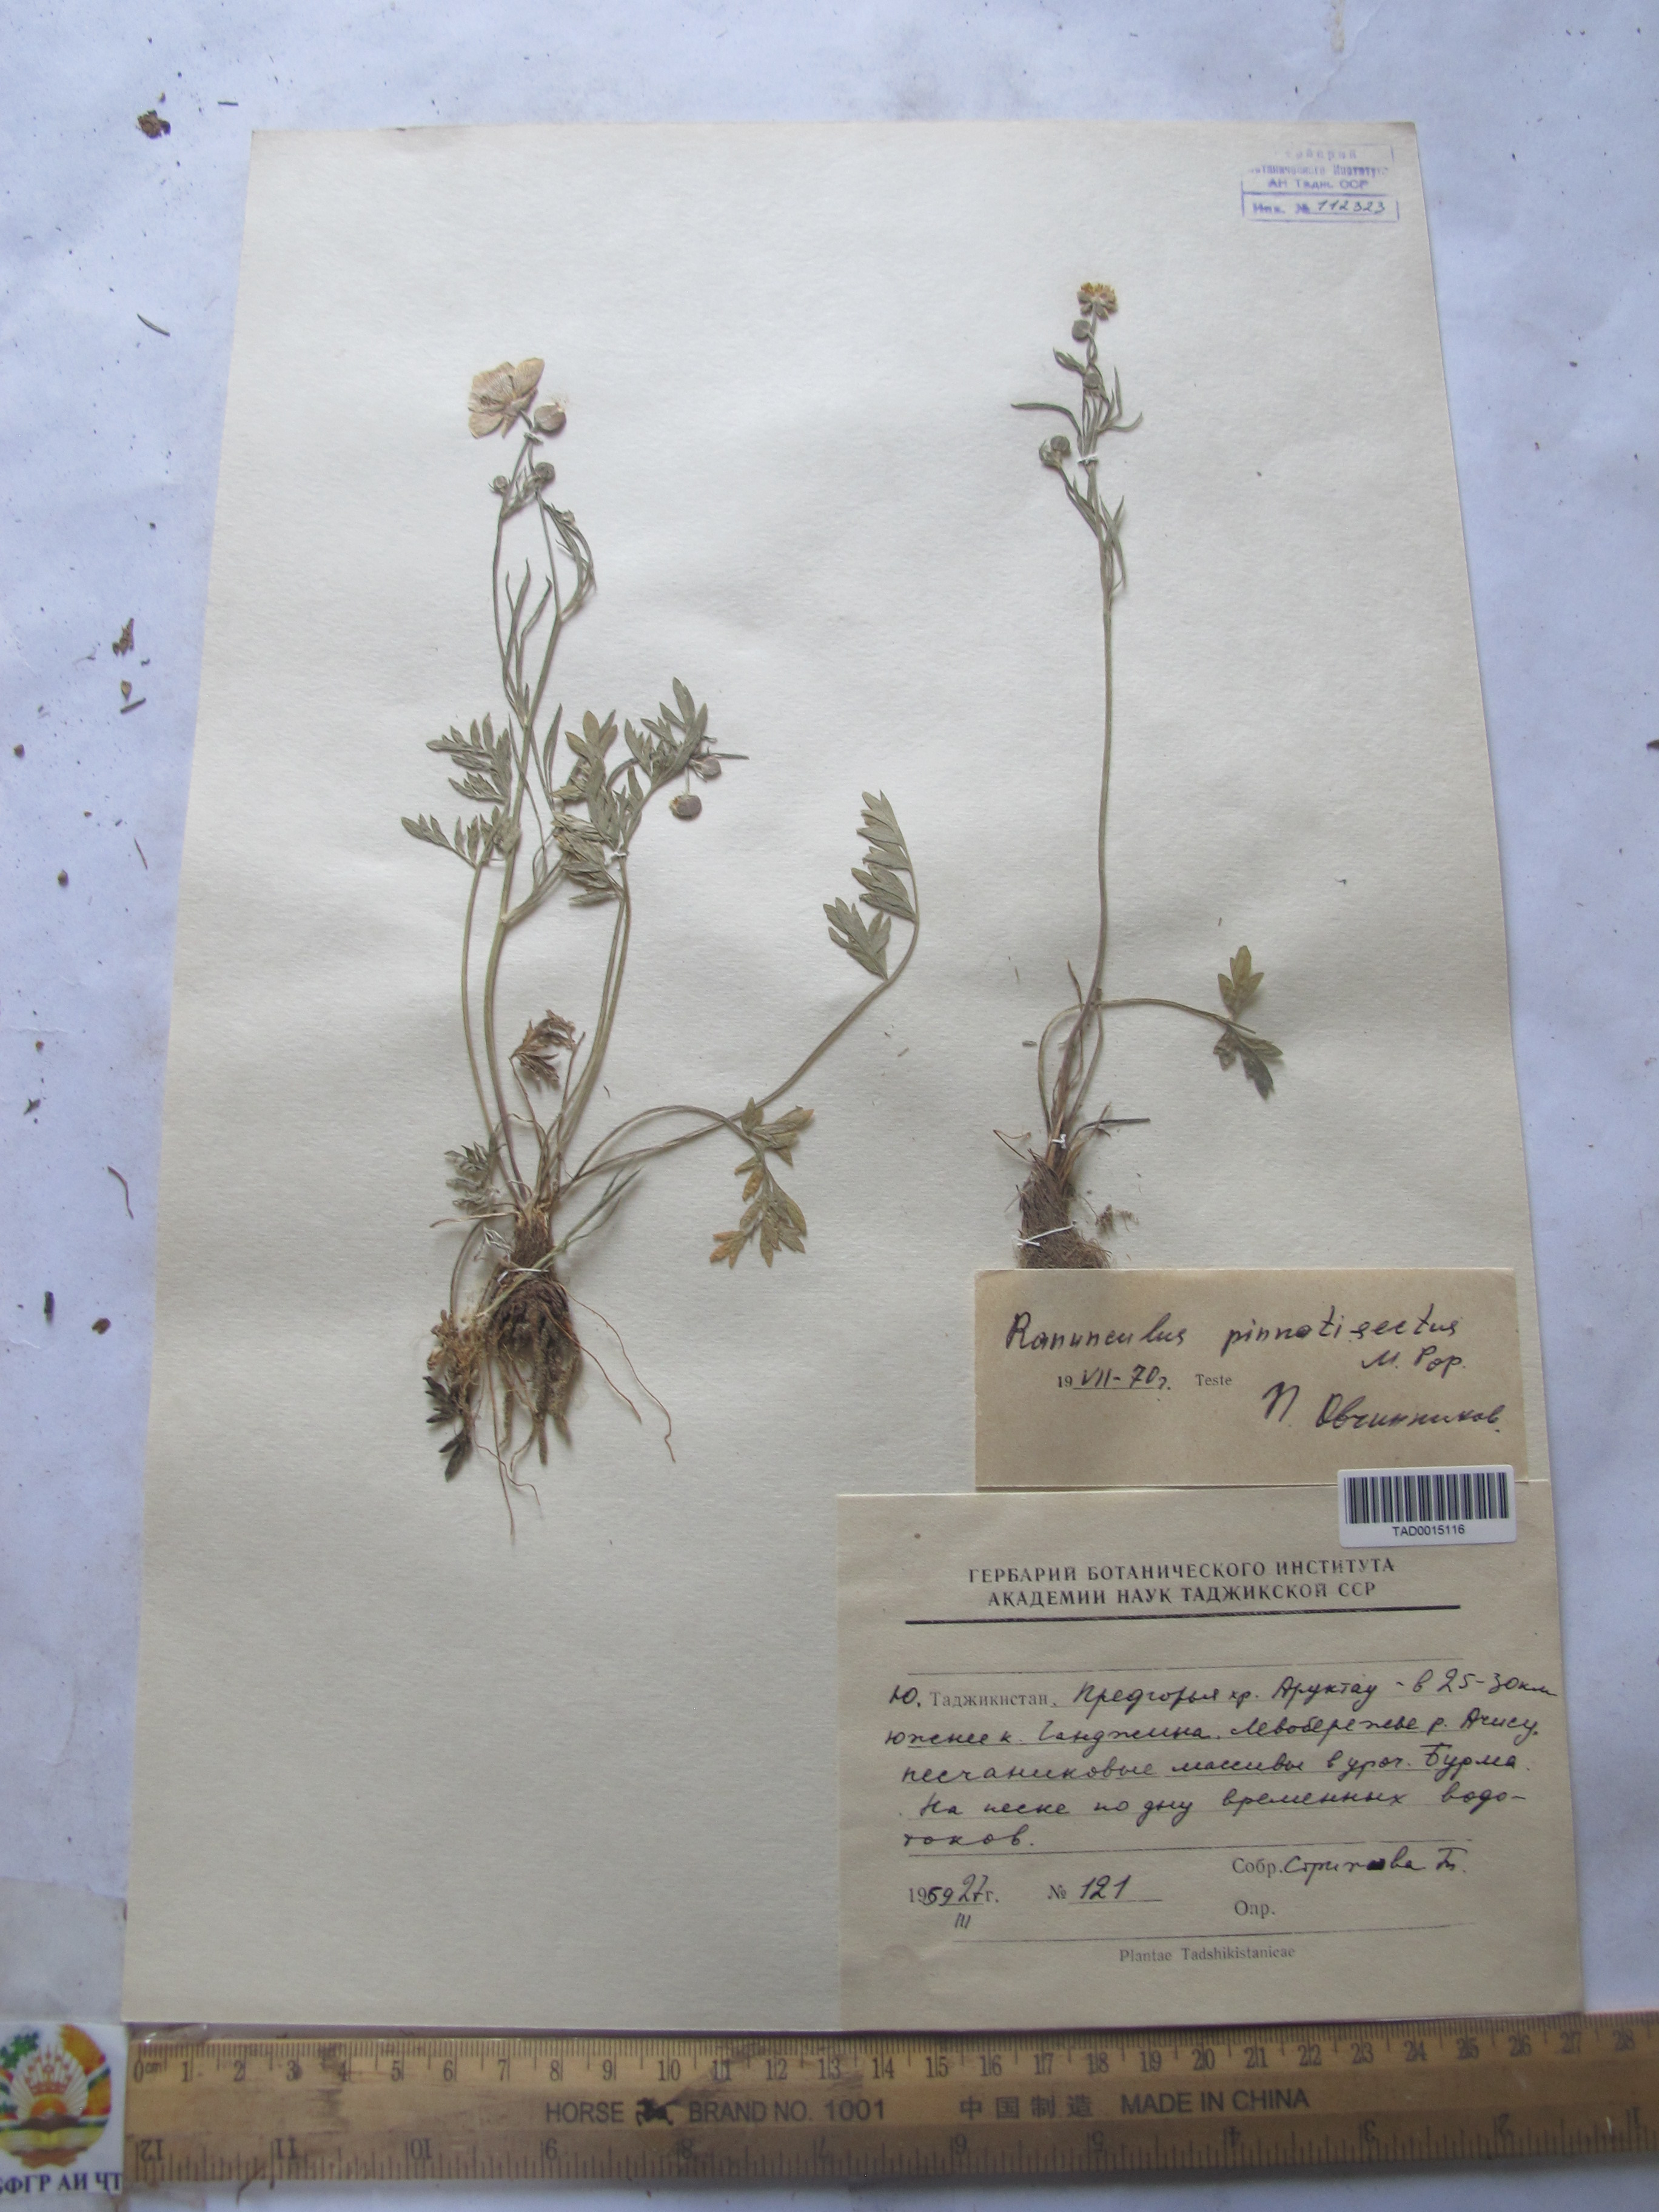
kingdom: Plantae
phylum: Tracheophyta
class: Magnoliopsida
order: Ranunculales
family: Ranunculaceae
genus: Ranunculus
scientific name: Ranunculus pinnatisectus
